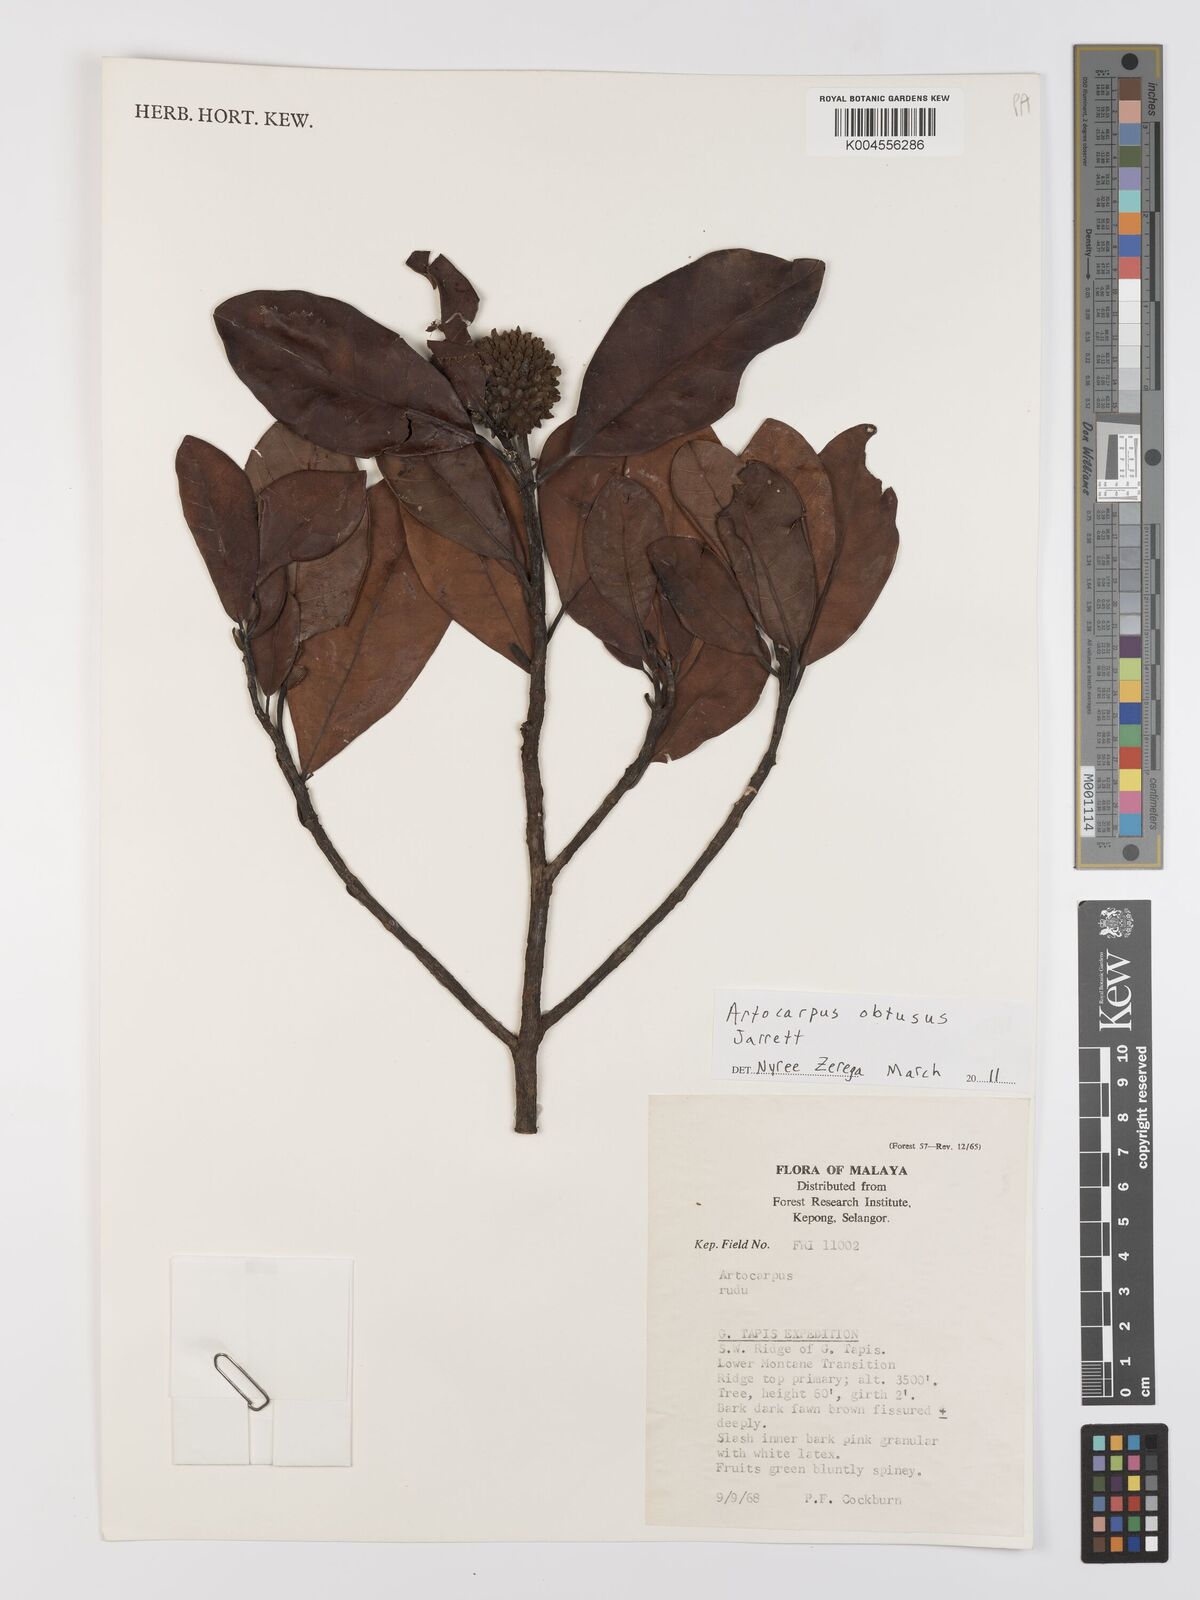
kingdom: Plantae
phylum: Tracheophyta
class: Magnoliopsida
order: Rosales
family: Moraceae
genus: Artocarpus
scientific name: Artocarpus obtusus
